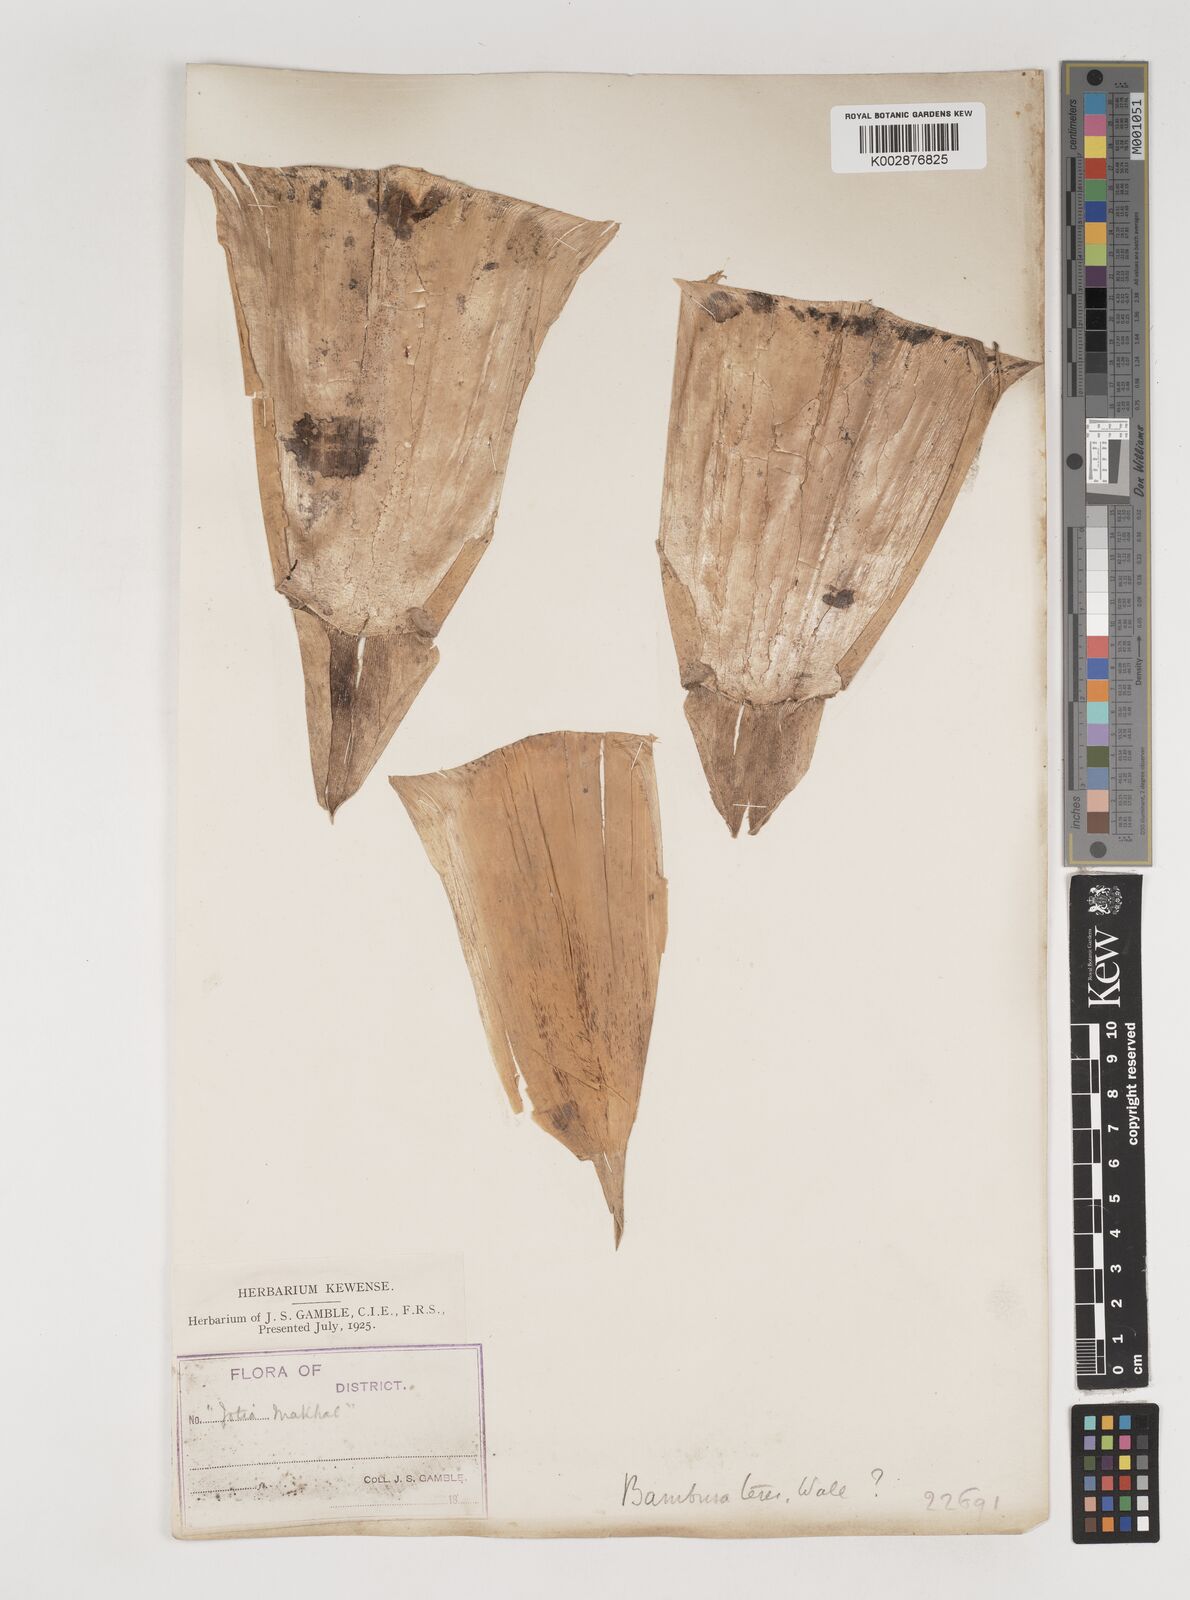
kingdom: Plantae
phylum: Tracheophyta
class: Liliopsida
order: Poales
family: Poaceae
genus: Bambusa
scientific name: Bambusa teres
